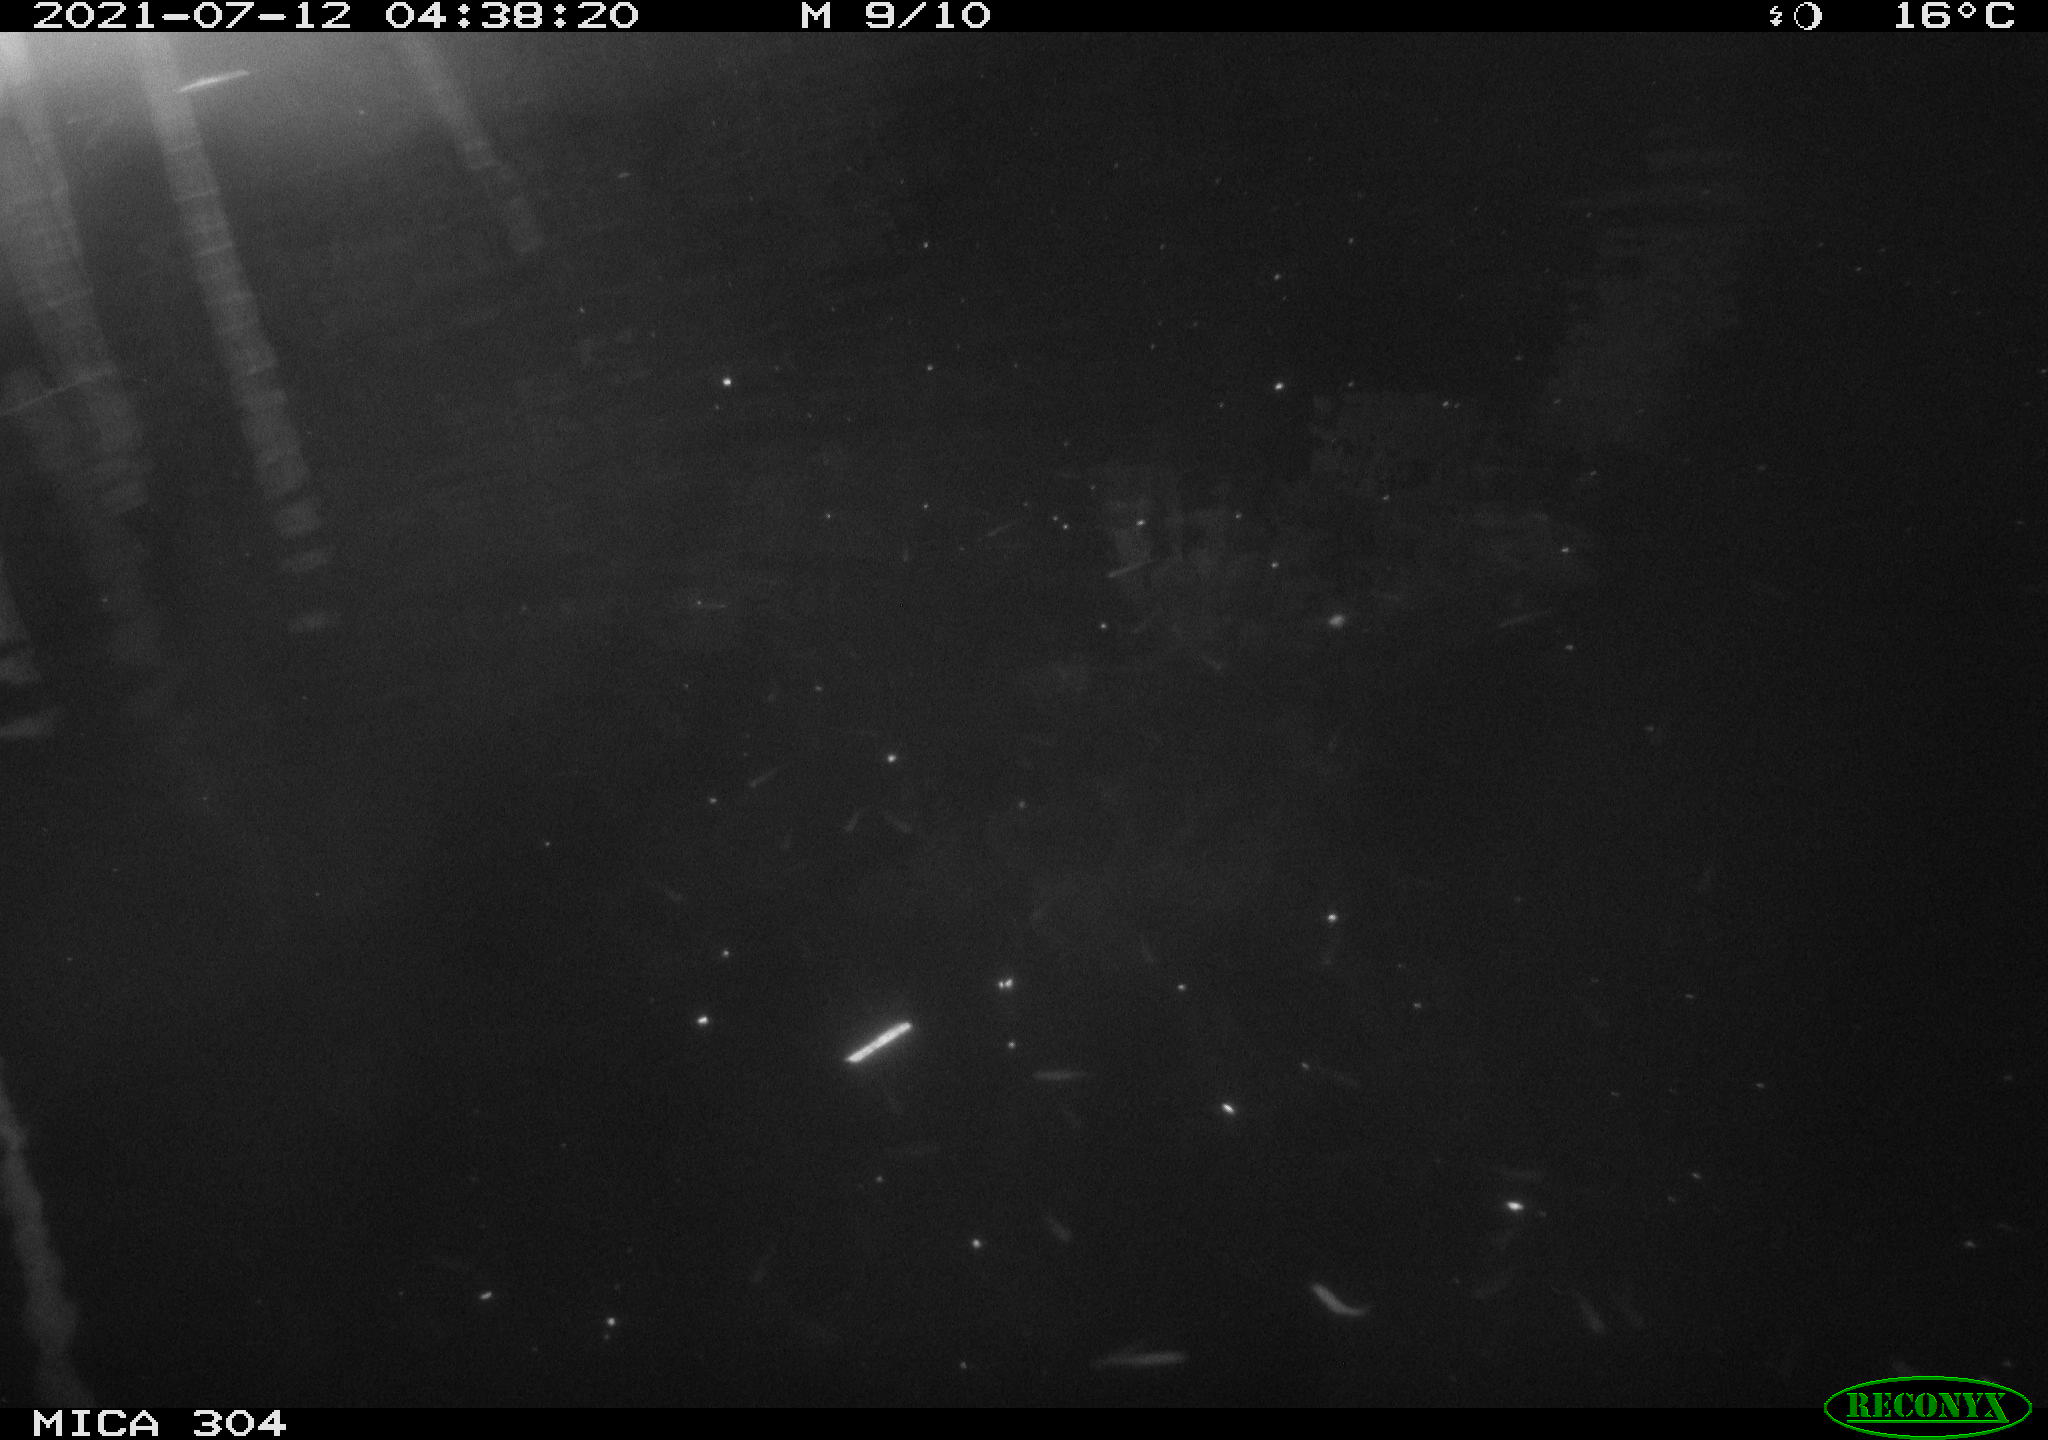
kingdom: Animalia
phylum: Chordata
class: Mammalia
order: Rodentia
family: Muridae
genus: Rattus
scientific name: Rattus norvegicus
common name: Brown rat
